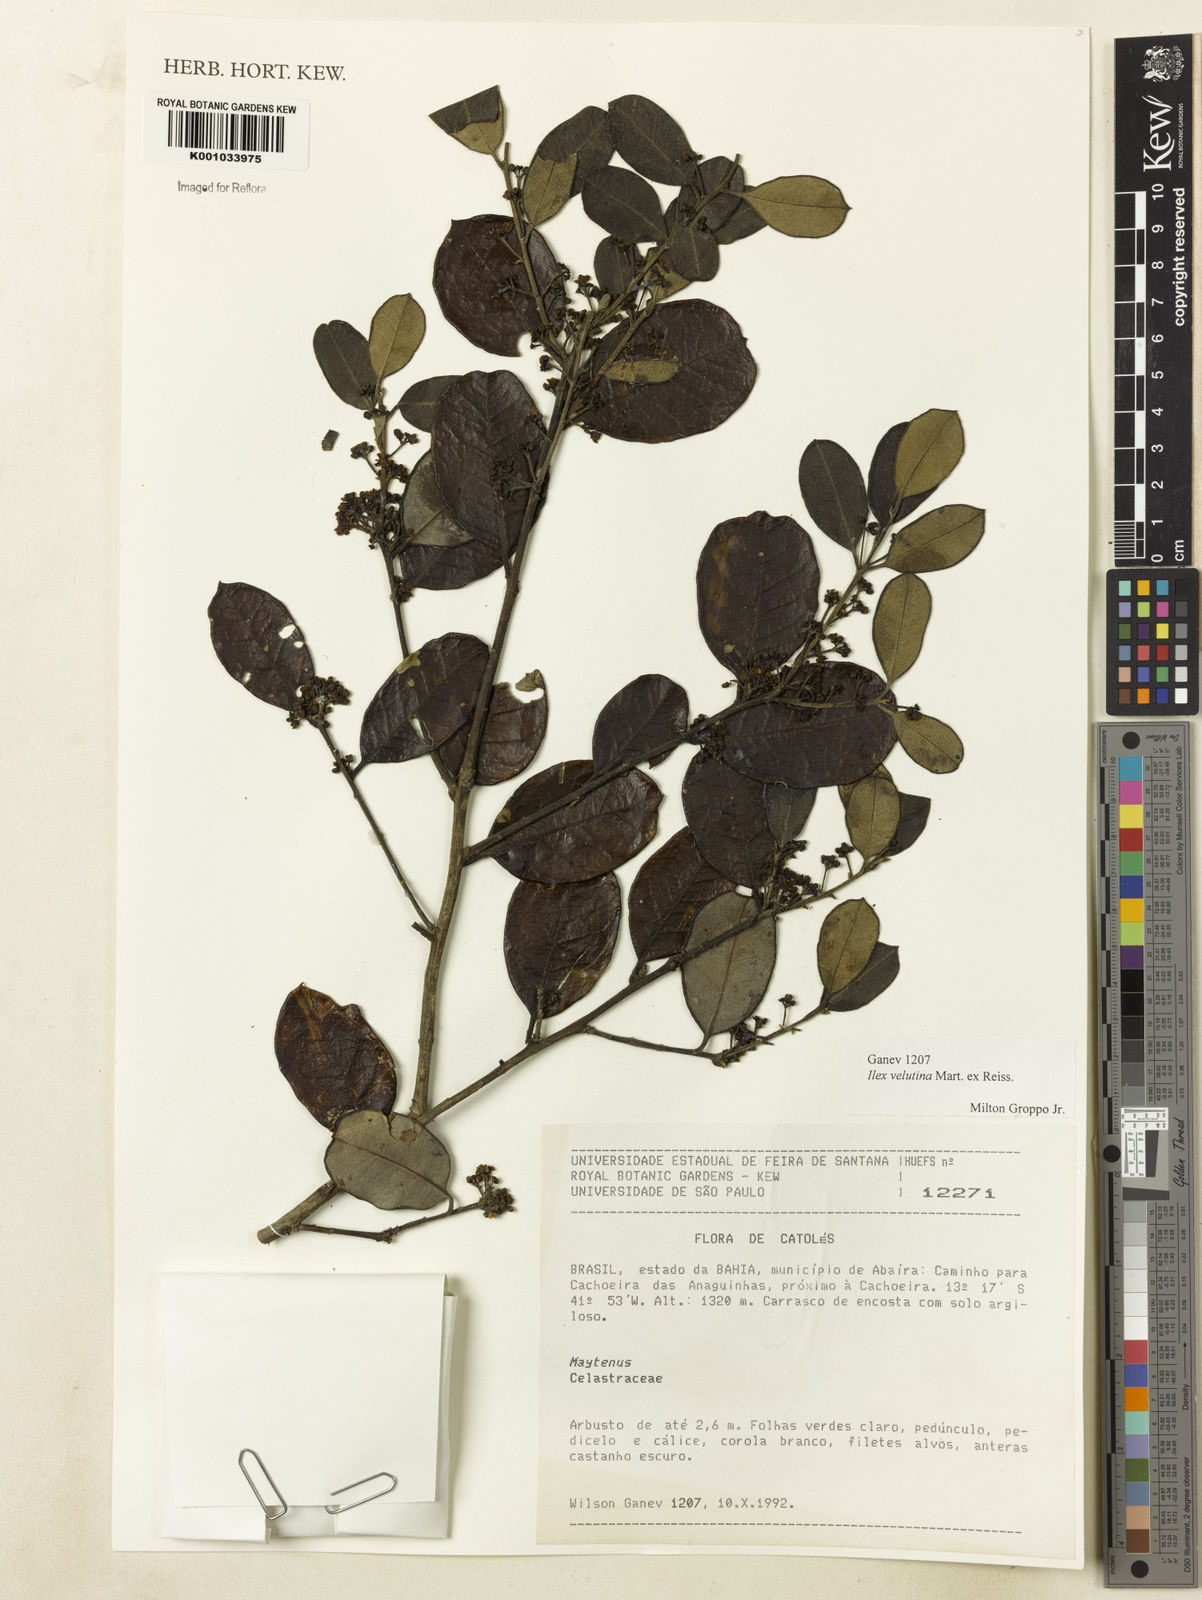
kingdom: Plantae
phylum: Tracheophyta
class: Magnoliopsida
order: Aquifoliales
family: Aquifoliaceae
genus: Ilex
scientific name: Ilex velutina
